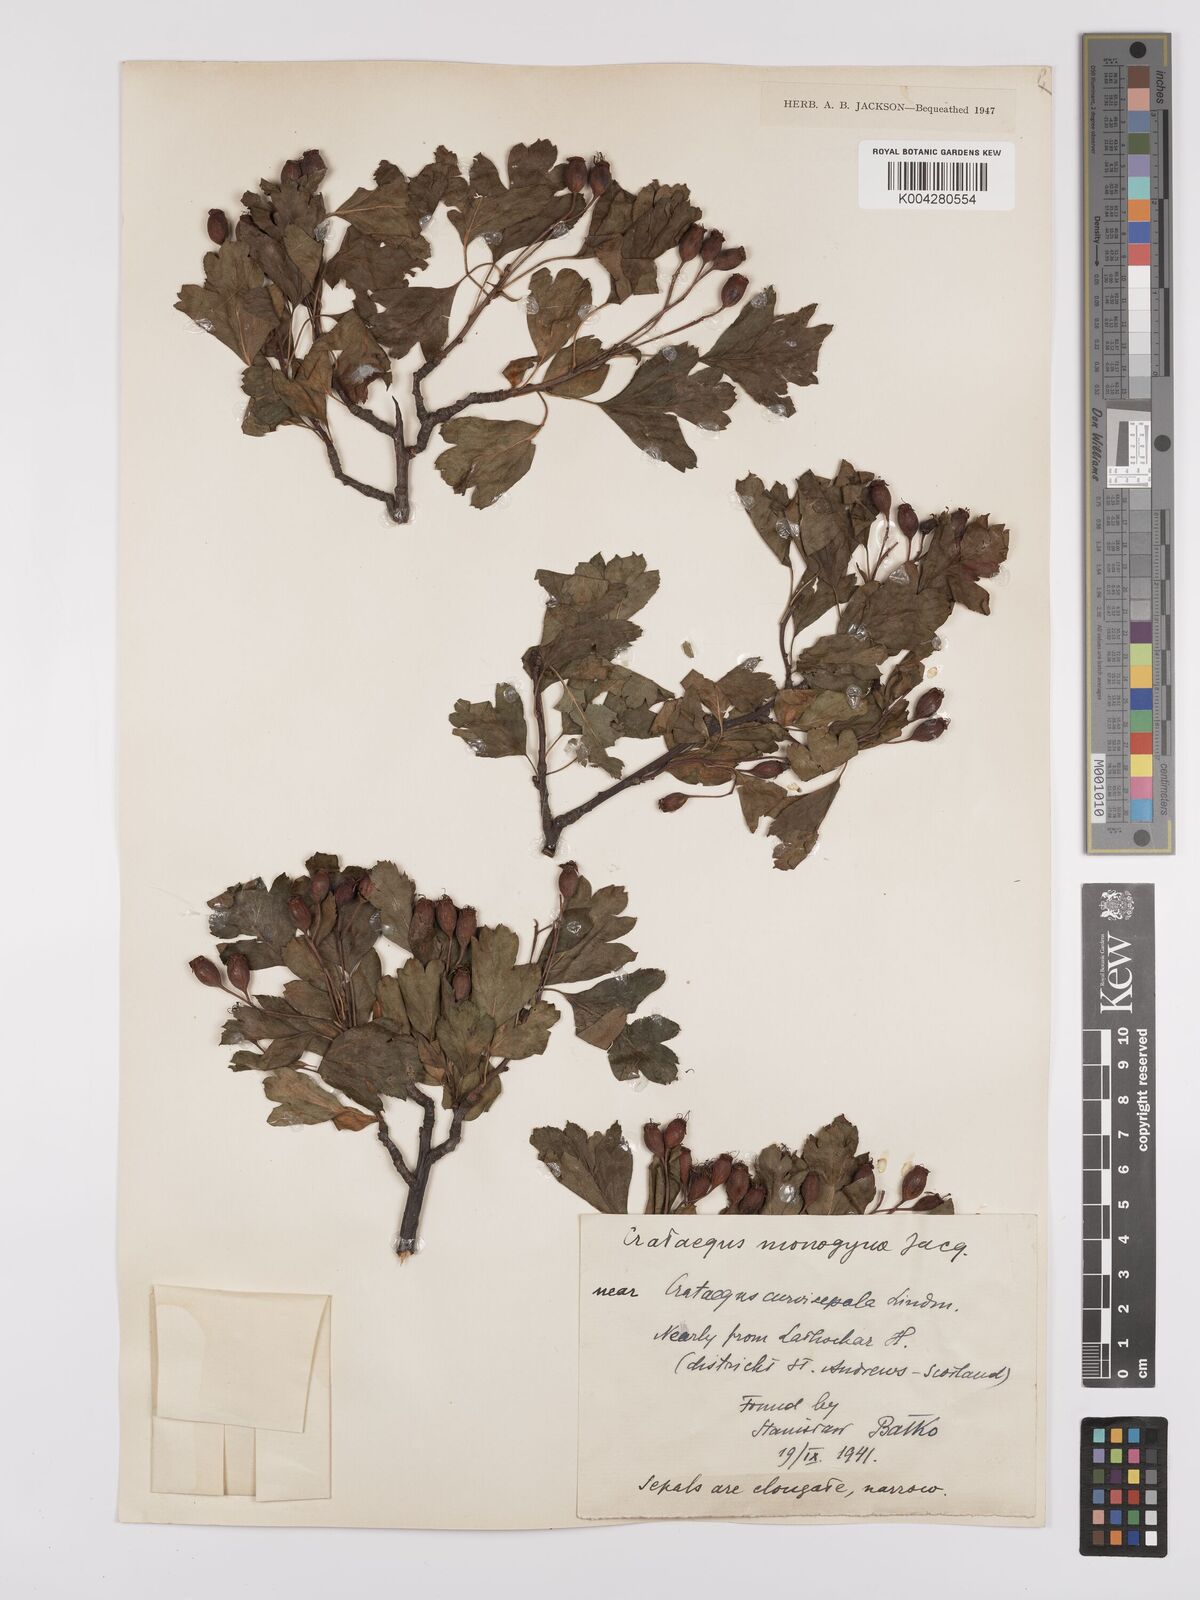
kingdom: Plantae
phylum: Tracheophyta
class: Magnoliopsida
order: Rosales
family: Rosaceae
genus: Crataegus
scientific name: Crataegus monogyna
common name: Hawthorn
